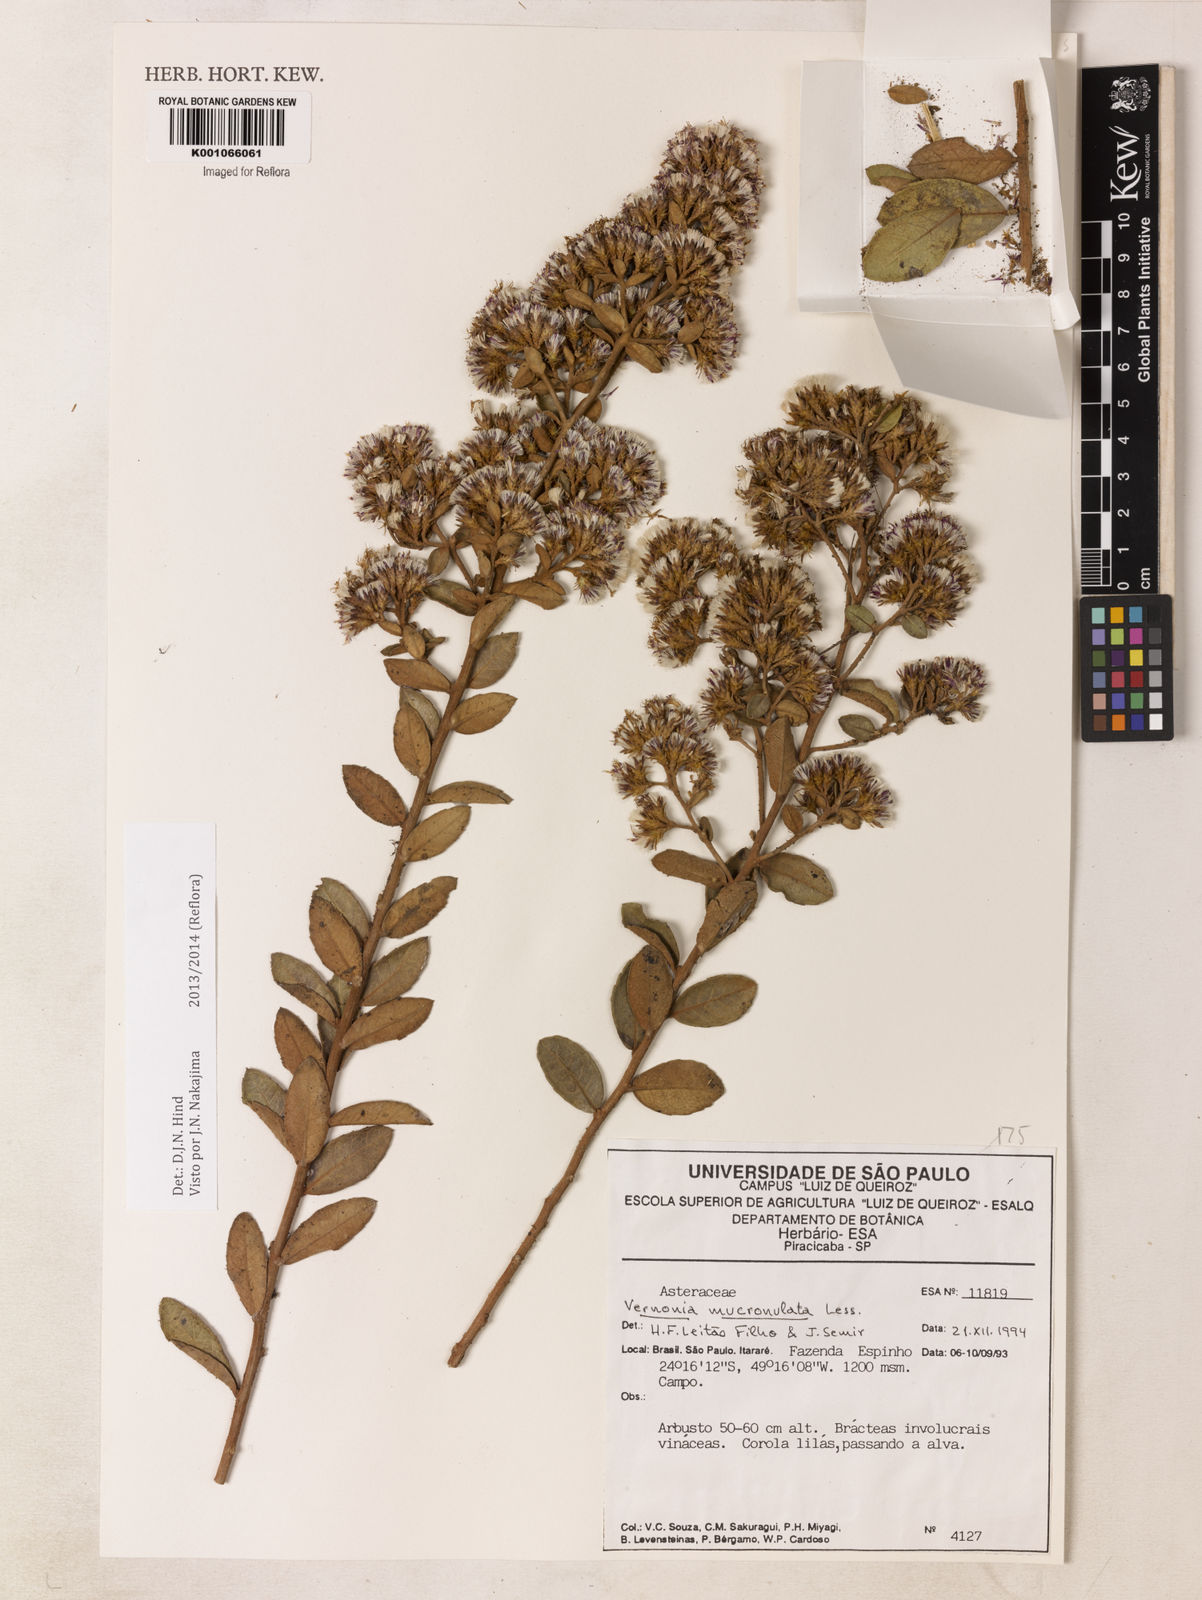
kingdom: Plantae
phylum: Tracheophyta
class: Magnoliopsida
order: Asterales
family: Asteraceae
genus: Vernonanthura
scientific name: Vernonanthura mucronulata
